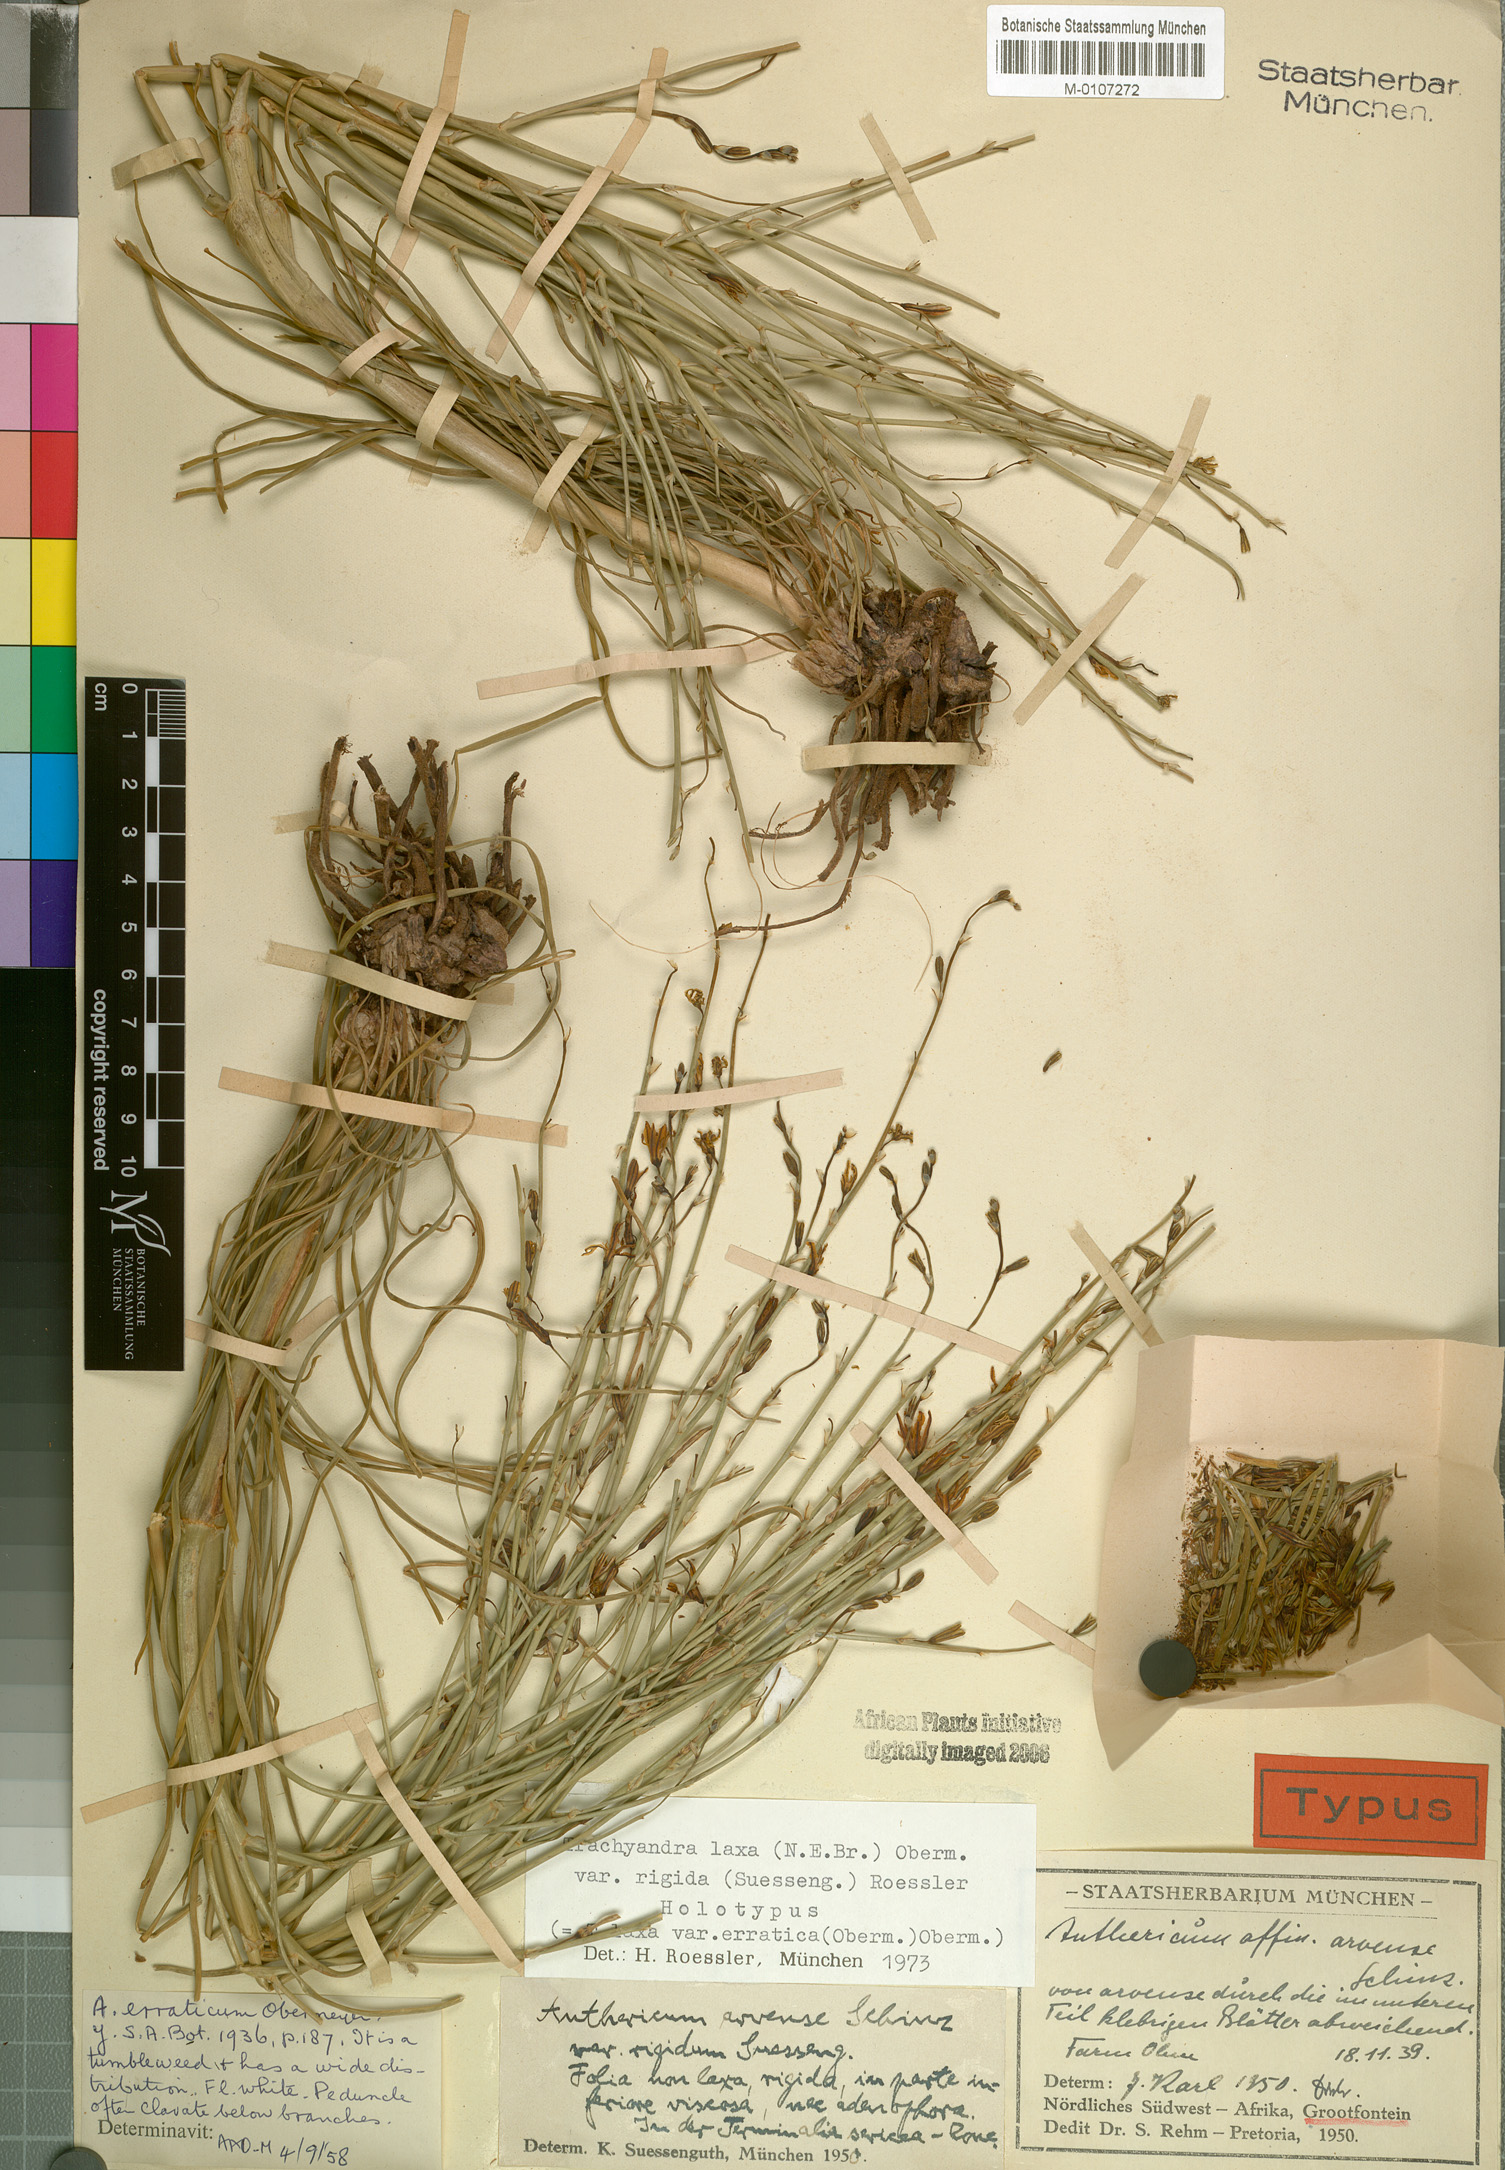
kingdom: Plantae
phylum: Tracheophyta
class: Liliopsida
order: Asparagales
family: Asphodelaceae
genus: Trachyandra
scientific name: Trachyandra laxa
